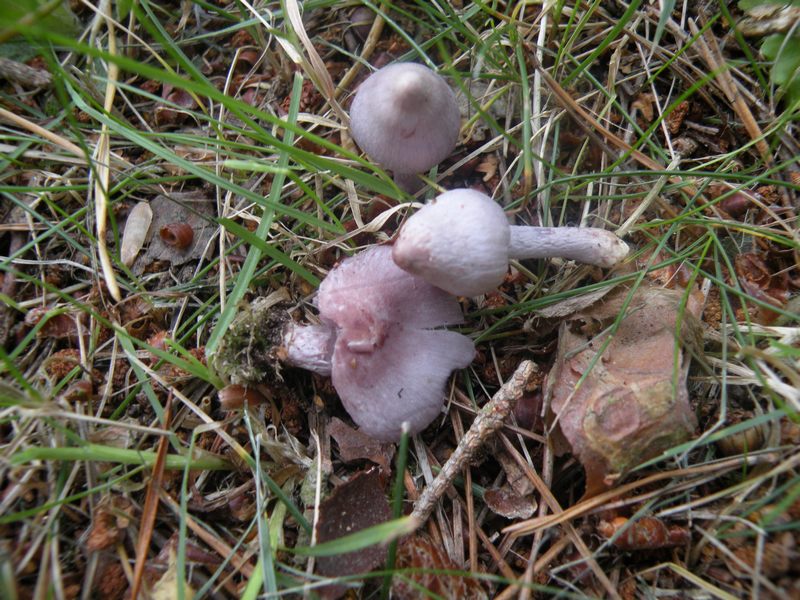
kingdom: Fungi
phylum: Basidiomycota
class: Agaricomycetes
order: Agaricales
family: Inocybaceae
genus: Inocybe
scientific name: Inocybe geophylla
